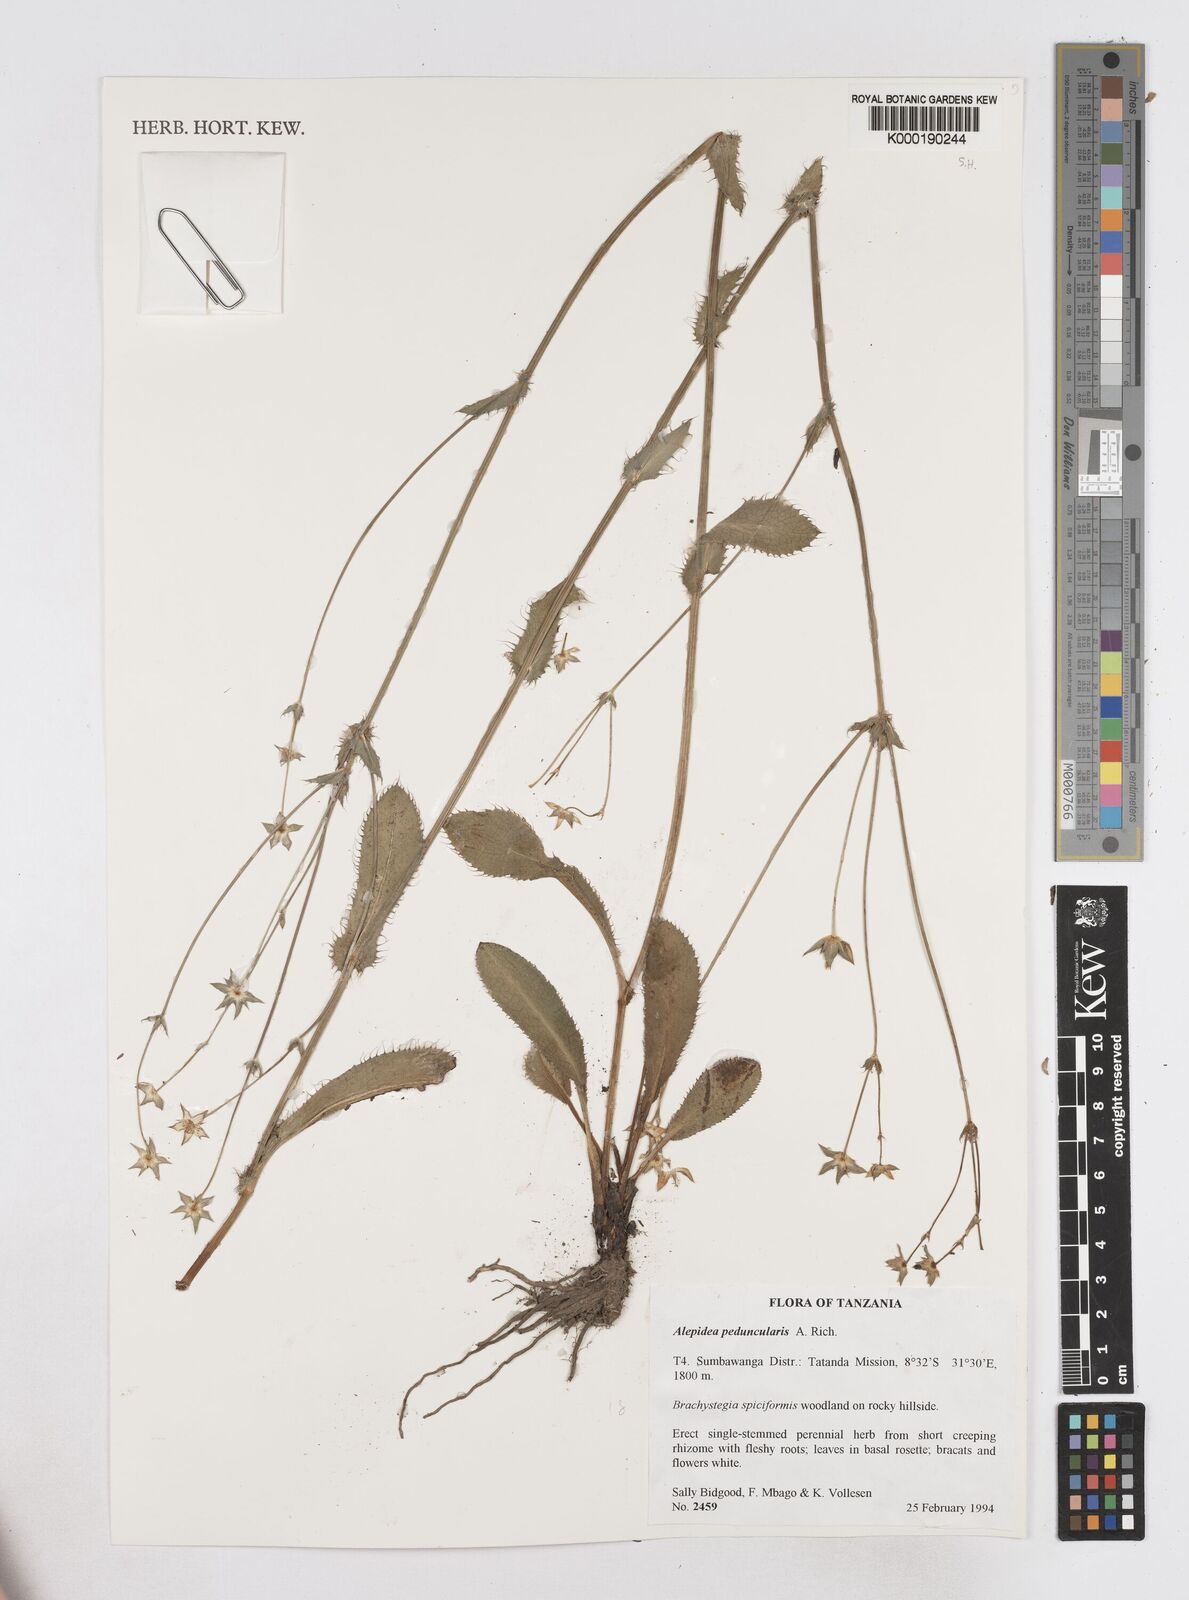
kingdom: Plantae
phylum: Tracheophyta
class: Magnoliopsida
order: Apiales
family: Apiaceae
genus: Alepidea
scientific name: Alepidea peduncularis
